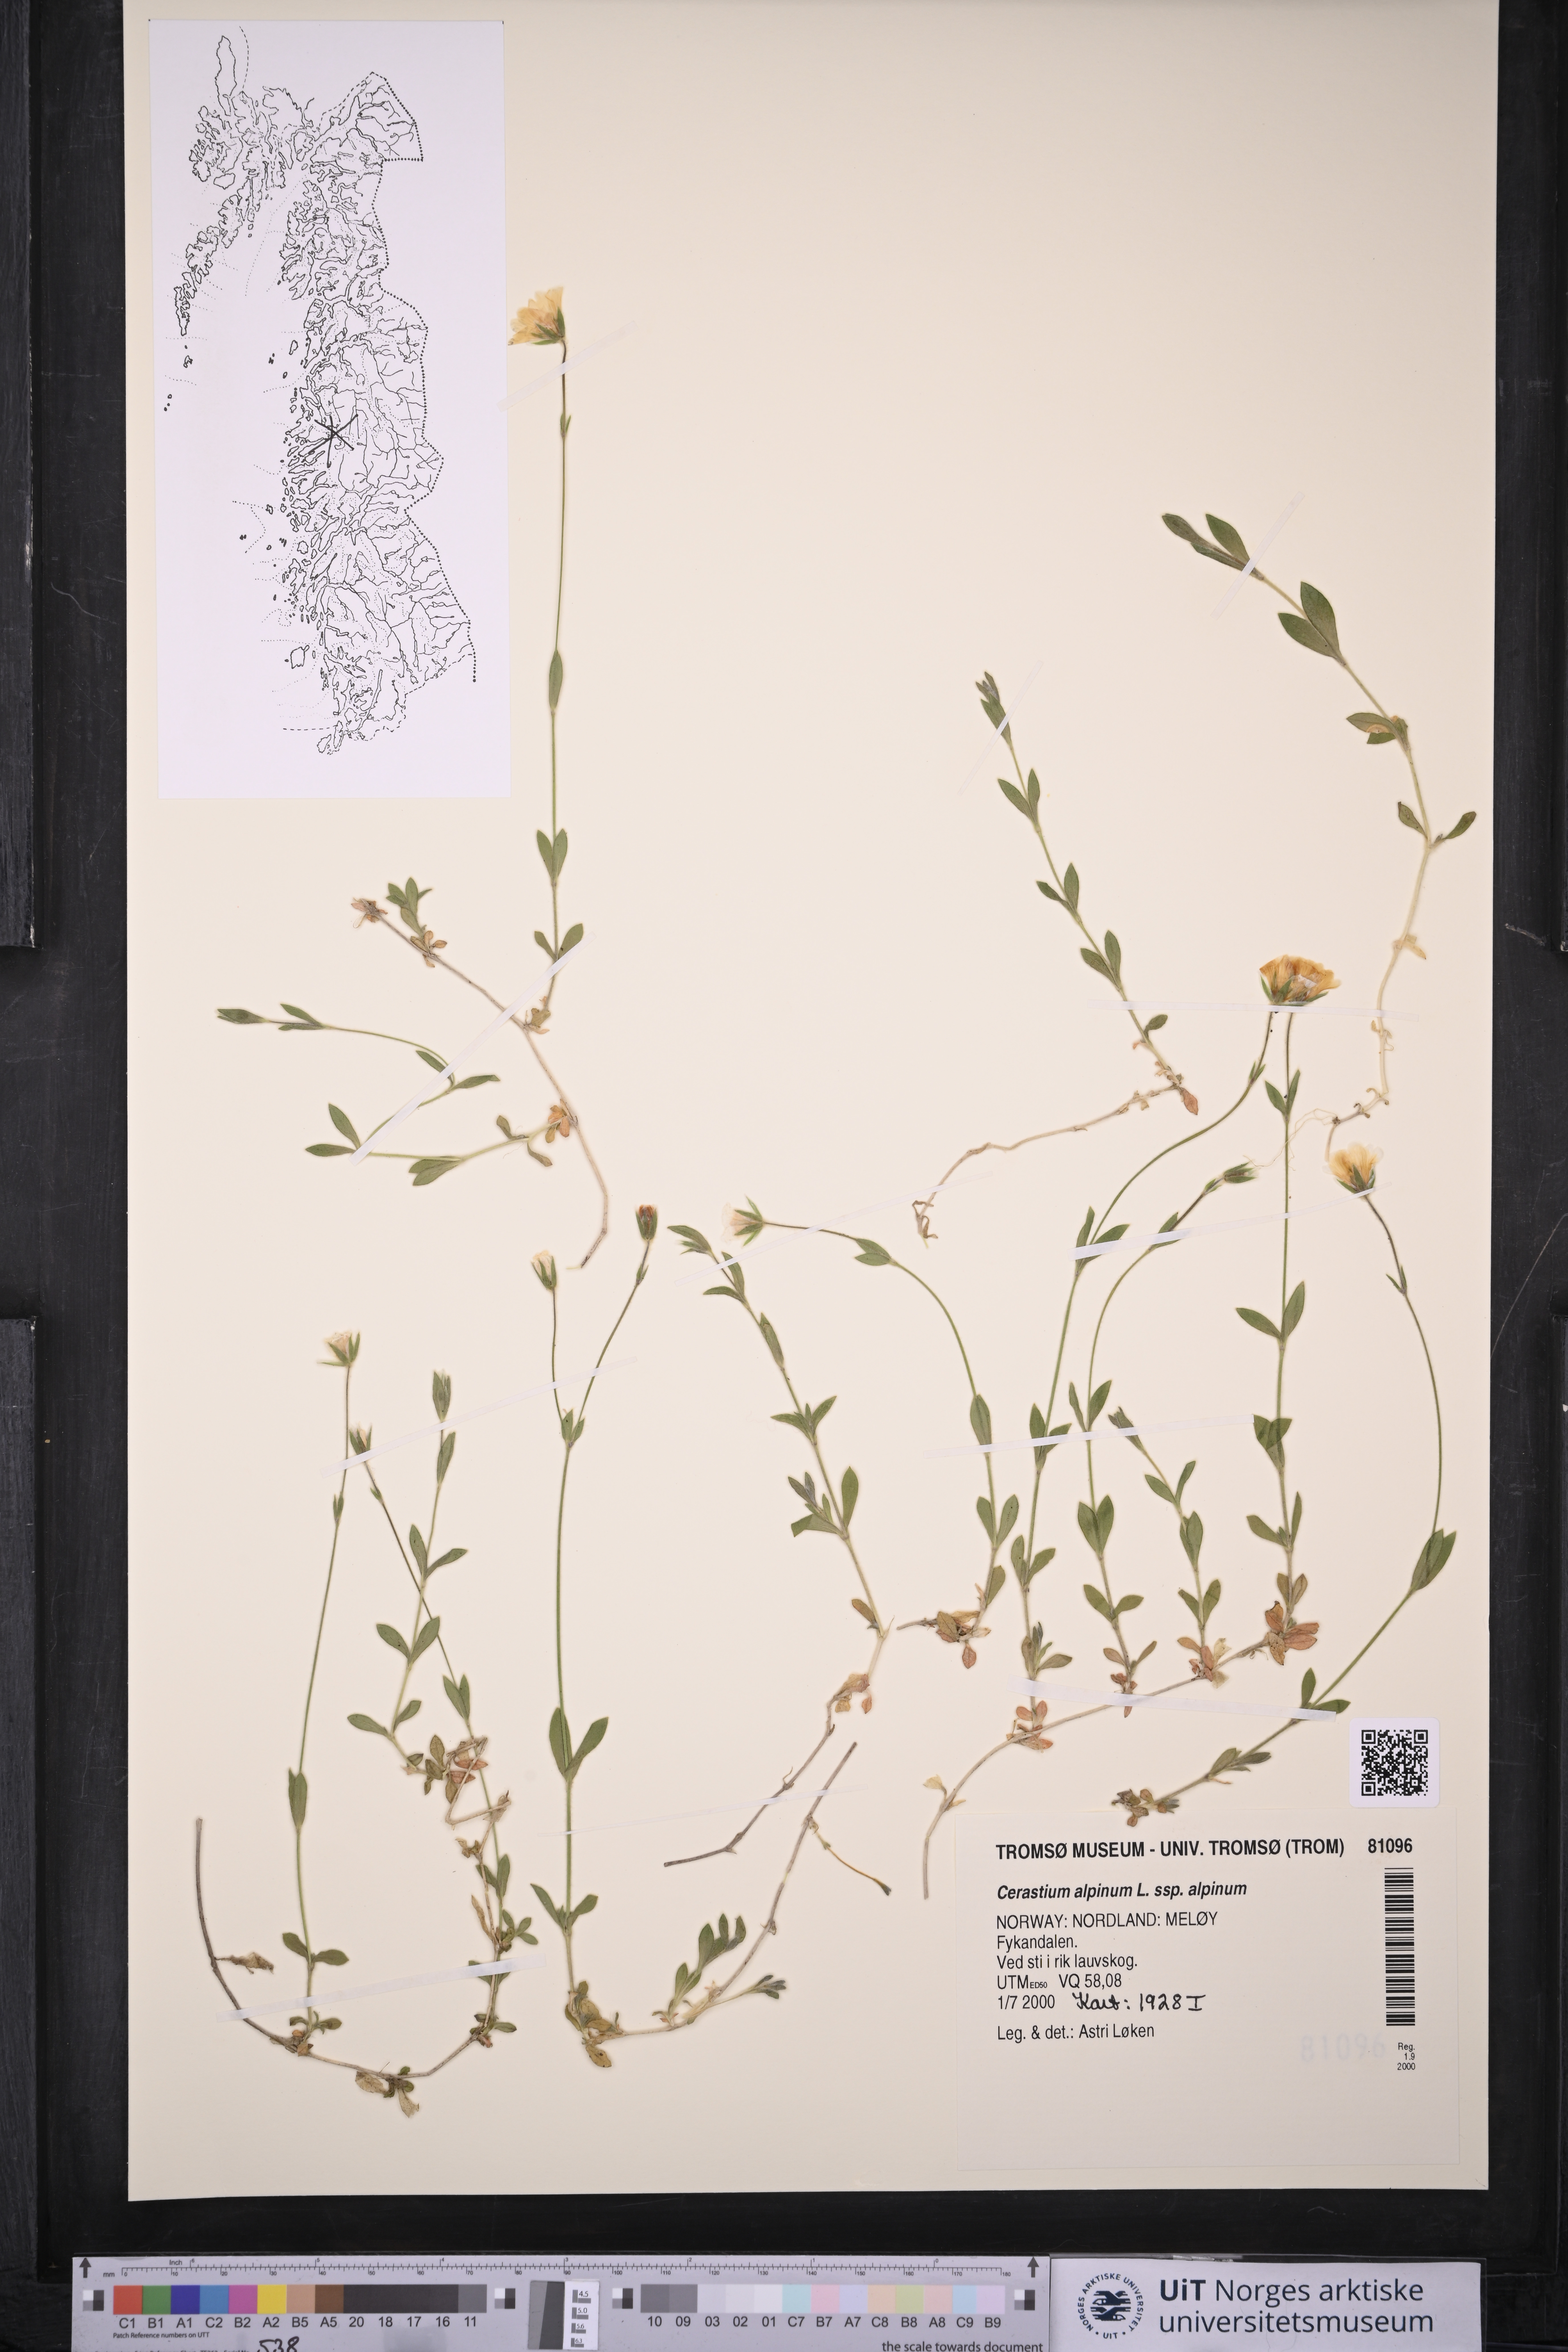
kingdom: Plantae
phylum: Tracheophyta
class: Magnoliopsida
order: Caryophyllales
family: Caryophyllaceae
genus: Cerastium
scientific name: Cerastium alpinum
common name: Alpine mouse-ear
